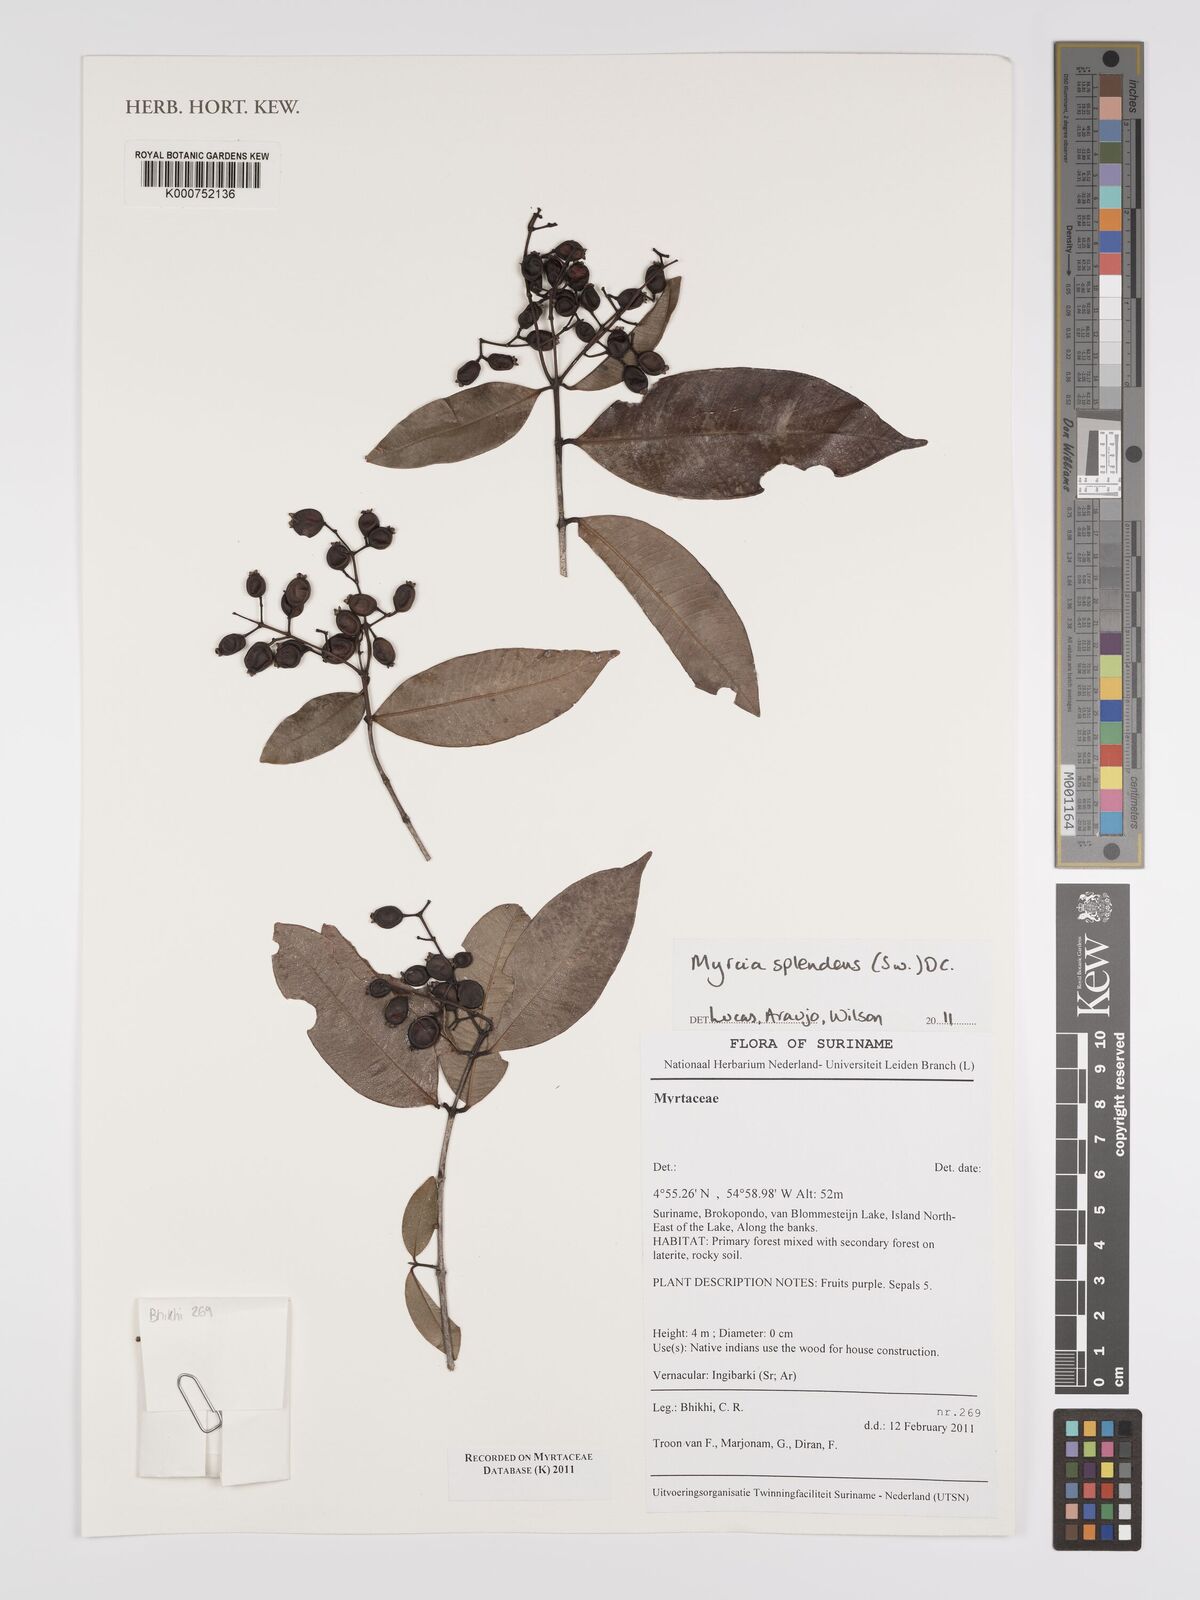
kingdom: Plantae
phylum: Tracheophyta
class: Magnoliopsida
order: Myrtales
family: Myrtaceae
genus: Myrcia
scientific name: Myrcia splendens
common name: Surinam cherry
